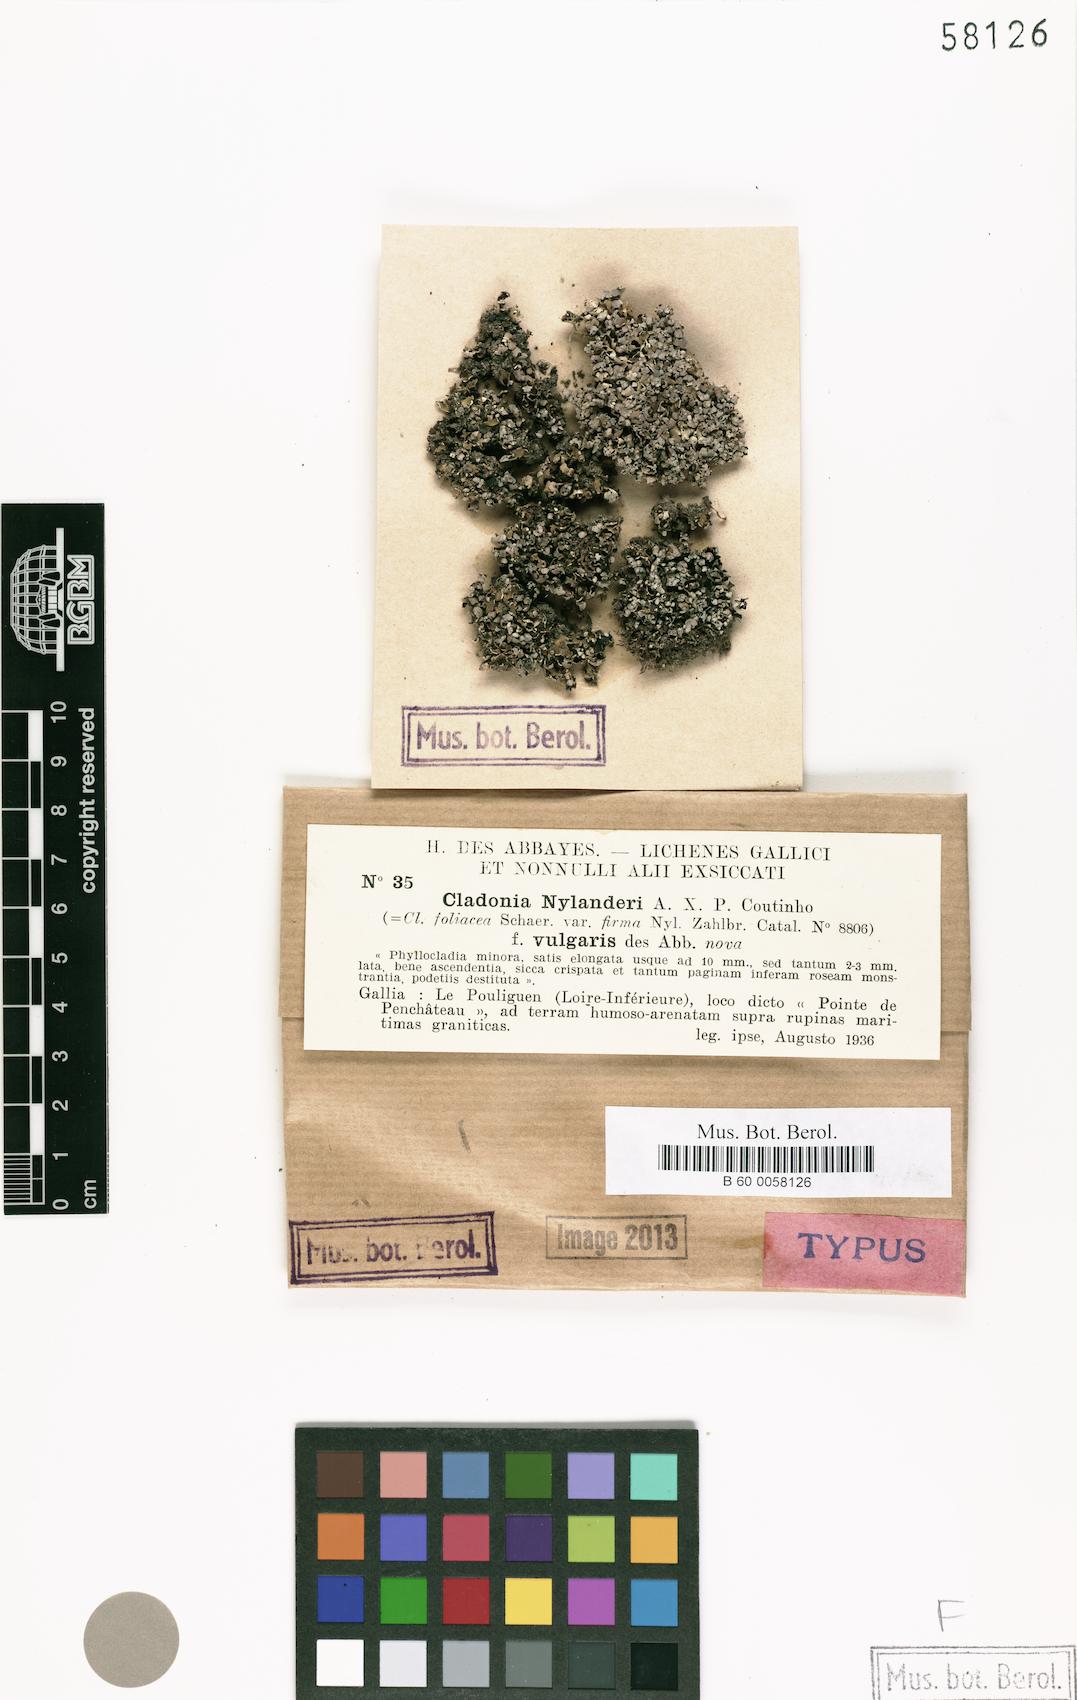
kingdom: Fungi
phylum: Ascomycota
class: Lecanoromycetes
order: Lecanorales
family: Cladoniaceae
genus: Cladonia
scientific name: Cladonia firma
